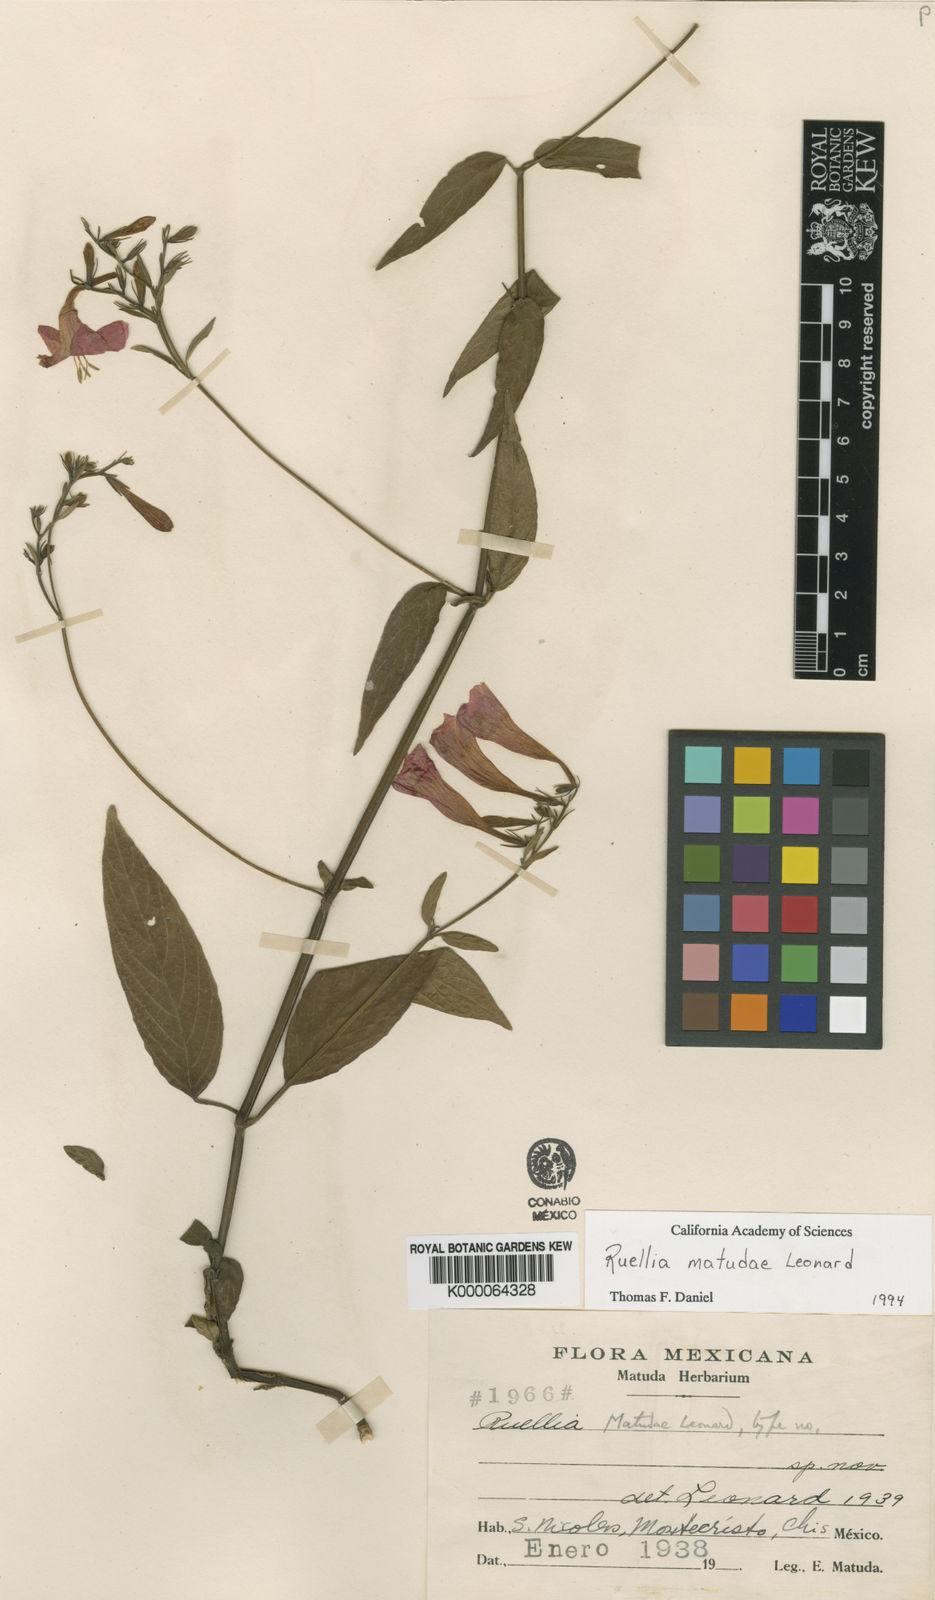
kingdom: Plantae
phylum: Tracheophyta
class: Magnoliopsida
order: Lamiales
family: Acanthaceae
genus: Ruellia
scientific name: Ruellia matudae
